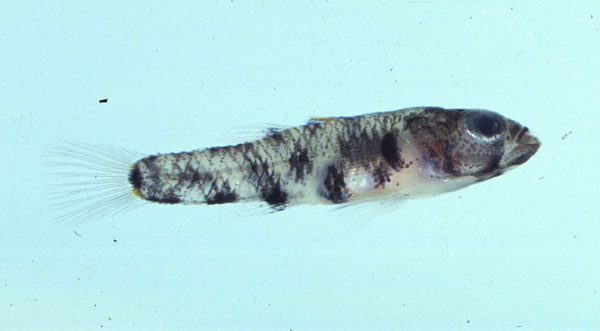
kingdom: Animalia
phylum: Chordata
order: Perciformes
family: Gobiidae
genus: Pandaka
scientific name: Pandaka lidwilli
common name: Lidwill's dwarf goby
